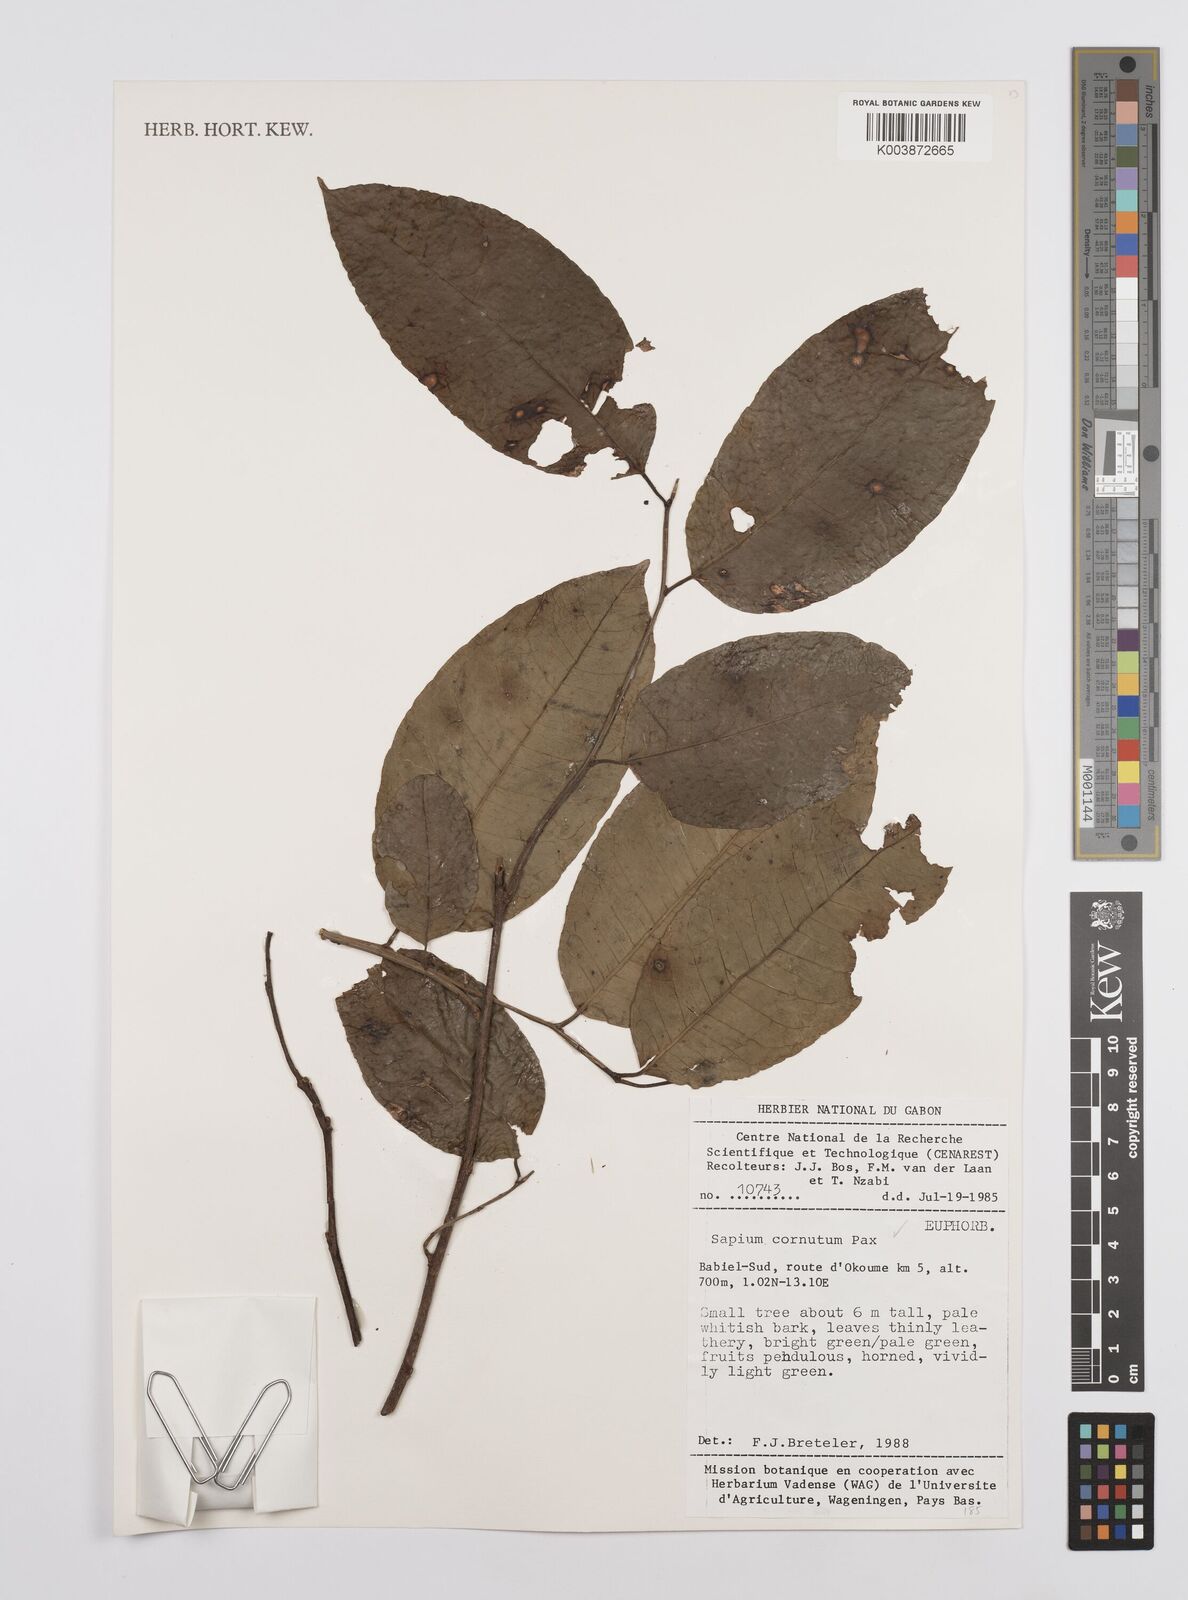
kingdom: Plantae
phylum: Tracheophyta
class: Magnoliopsida
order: Malpighiales
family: Euphorbiaceae
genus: Sclerocroton
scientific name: Sclerocroton cornutus
